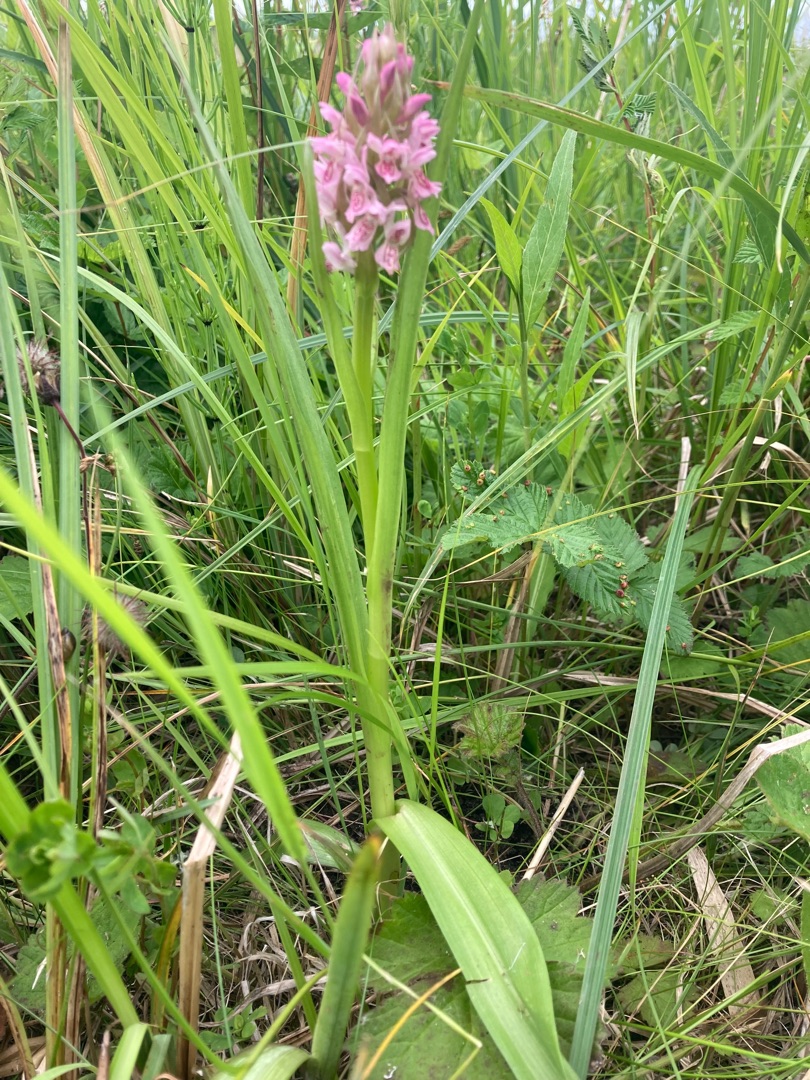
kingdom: Plantae
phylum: Tracheophyta
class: Liliopsida
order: Asparagales
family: Orchidaceae
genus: Dactylorhiza
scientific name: Dactylorhiza incarnata
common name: Kødfarvet gøgeurt
